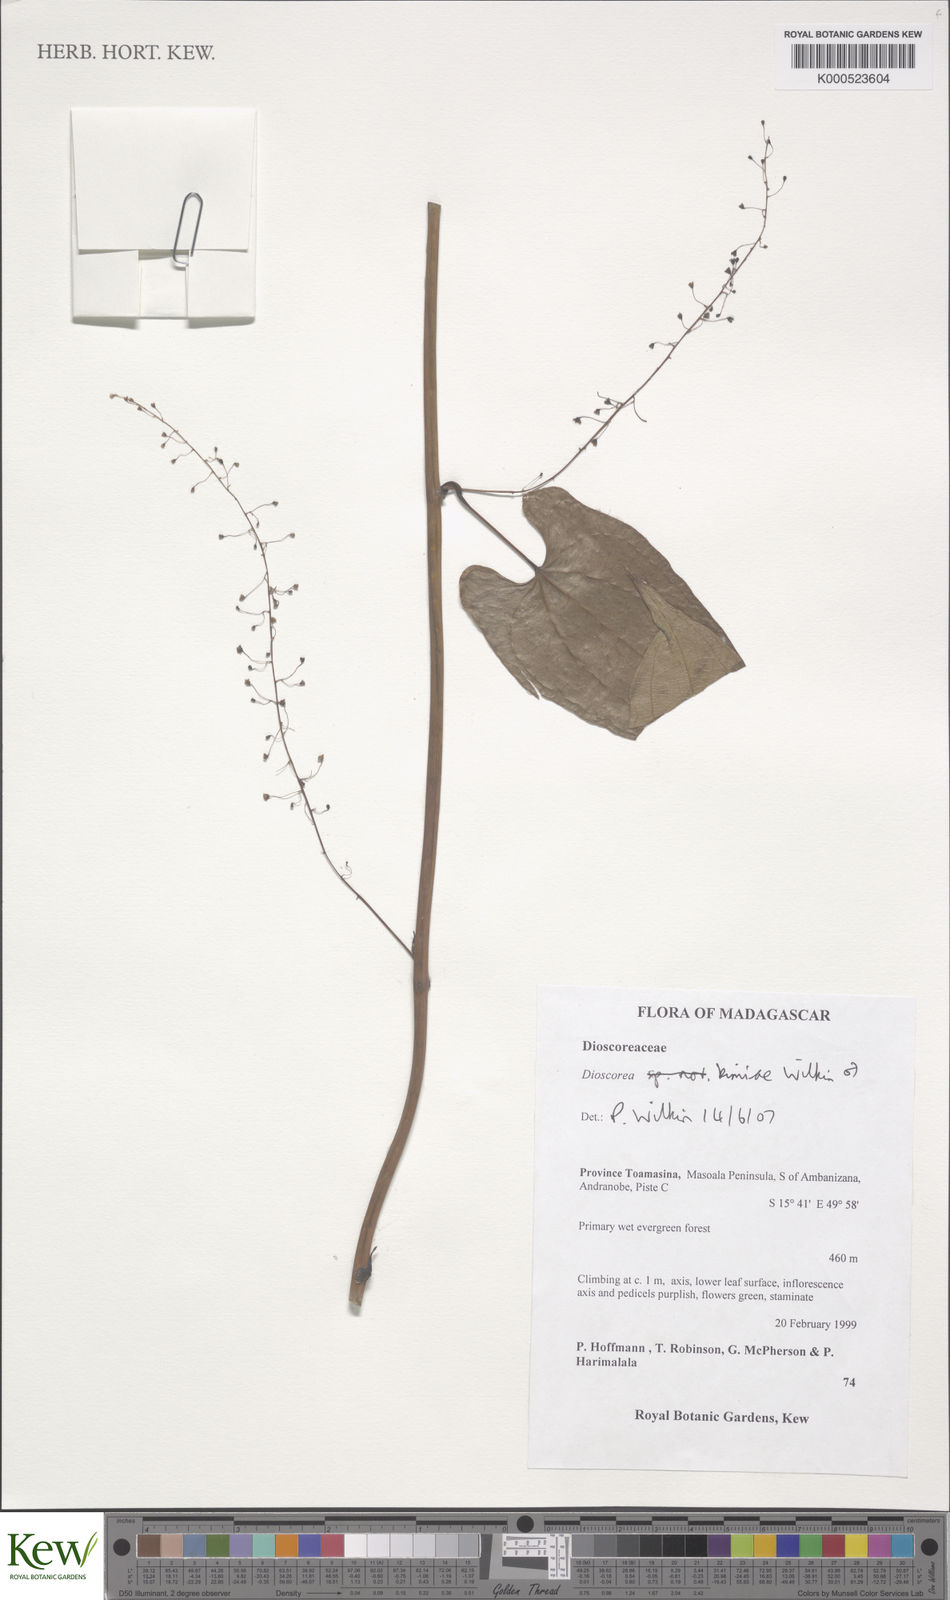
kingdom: Plantae
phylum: Tracheophyta
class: Liliopsida
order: Dioscoreales
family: Dioscoreaceae
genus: Dioscorea
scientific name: Dioscorea kimiae
